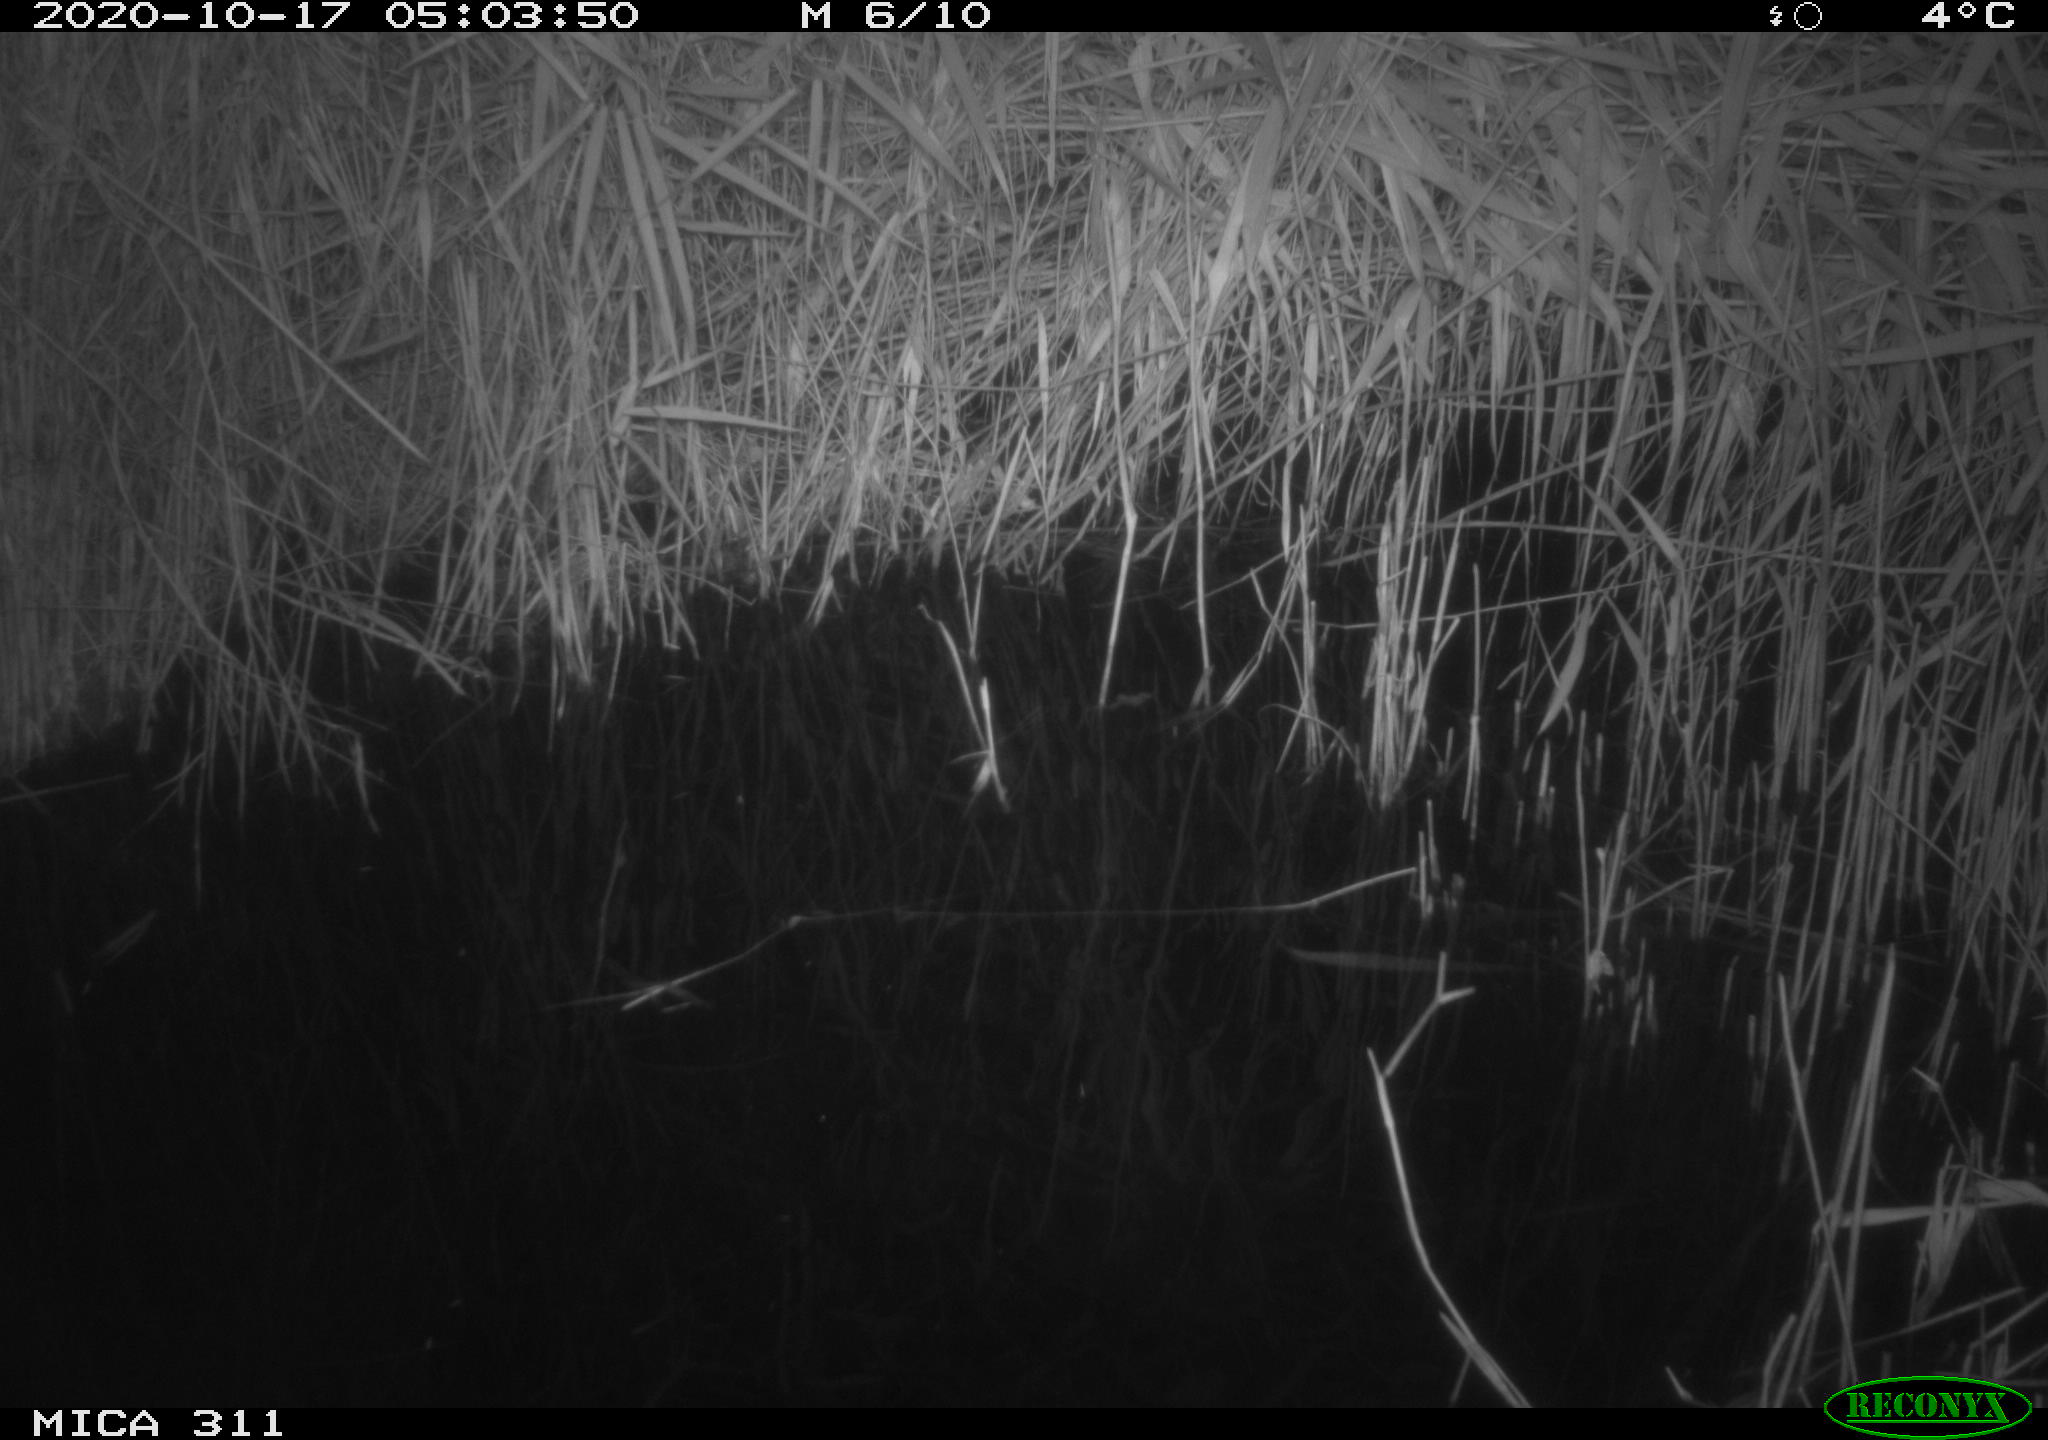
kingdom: Animalia
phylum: Chordata
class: Mammalia
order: Rodentia
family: Muridae
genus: Rattus
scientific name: Rattus norvegicus
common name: Brown rat
